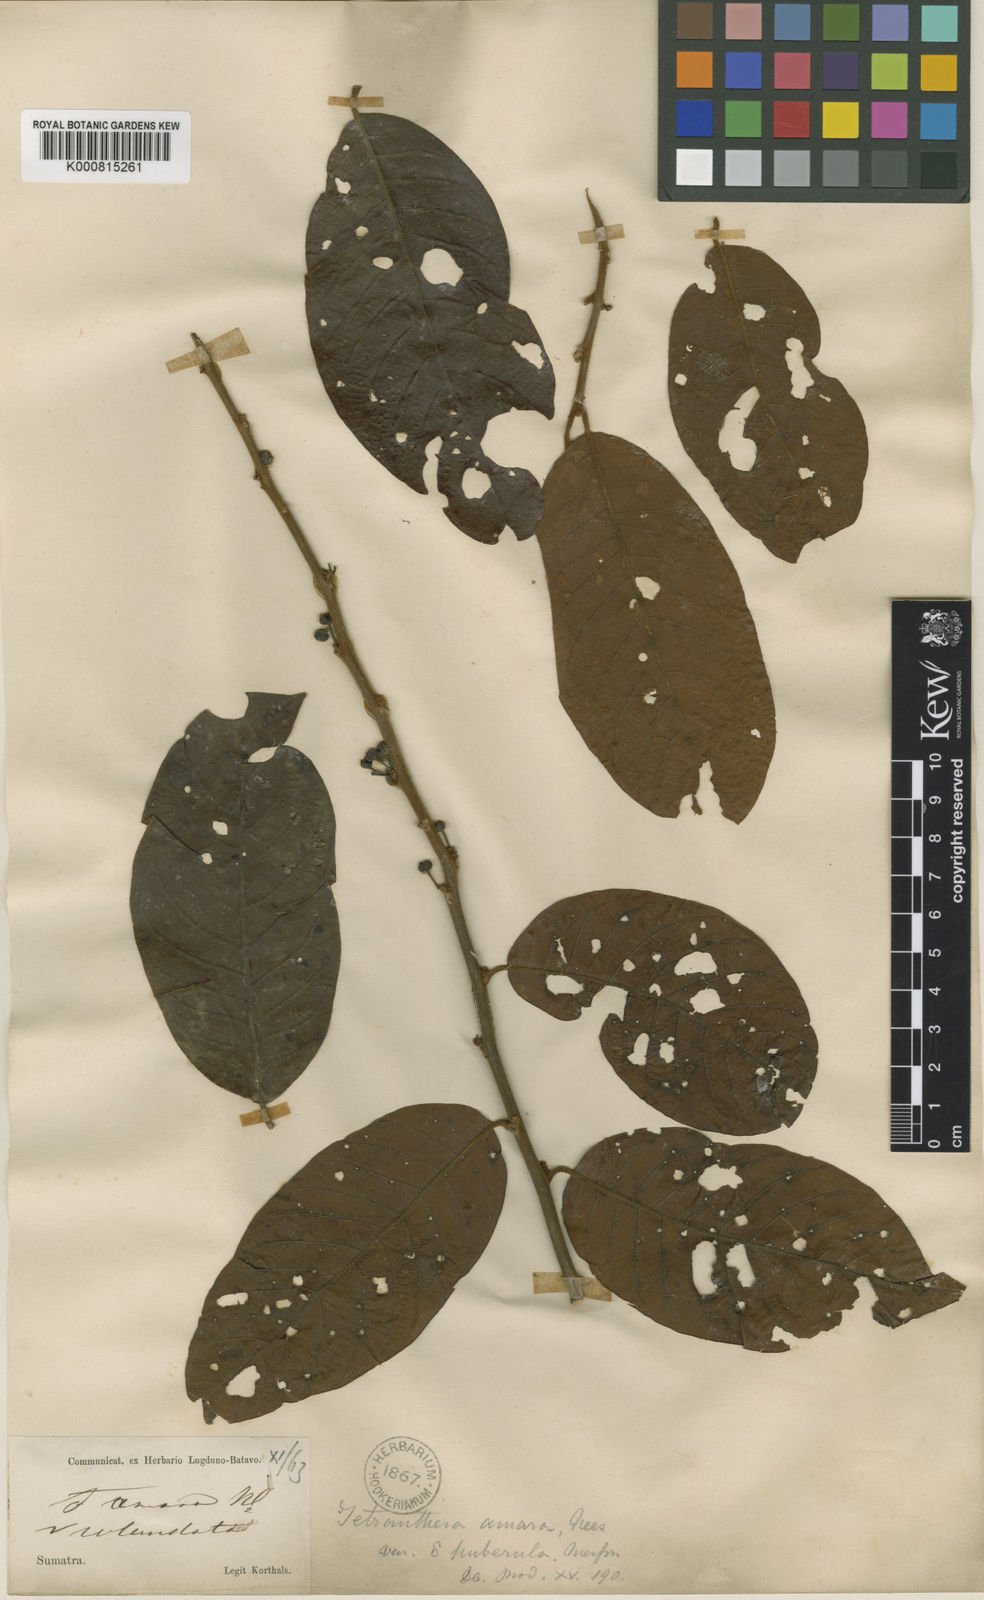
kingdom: Plantae
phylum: Tracheophyta
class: Magnoliopsida
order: Laurales
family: Lauraceae
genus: Litsea
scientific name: Litsea umbellata
